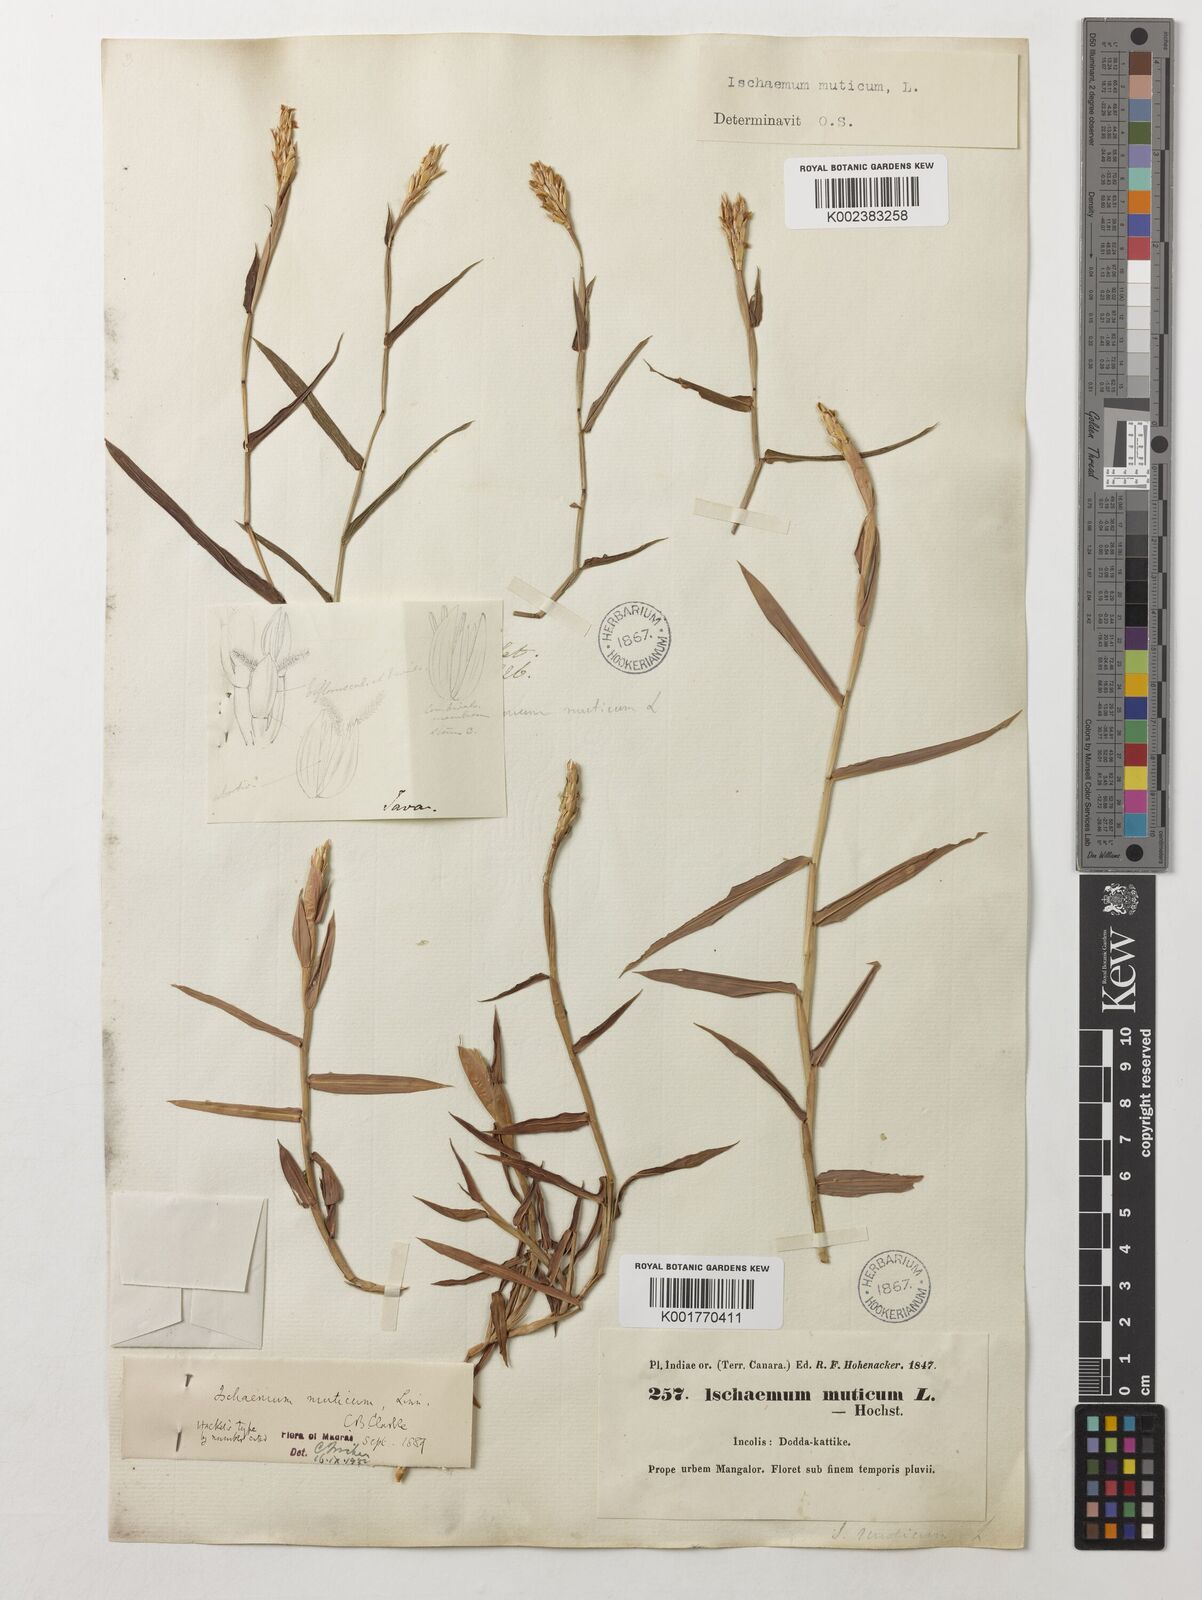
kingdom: Plantae
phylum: Tracheophyta
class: Liliopsida
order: Poales
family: Poaceae
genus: Ischaemum
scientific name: Ischaemum muticum
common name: Drought grass
